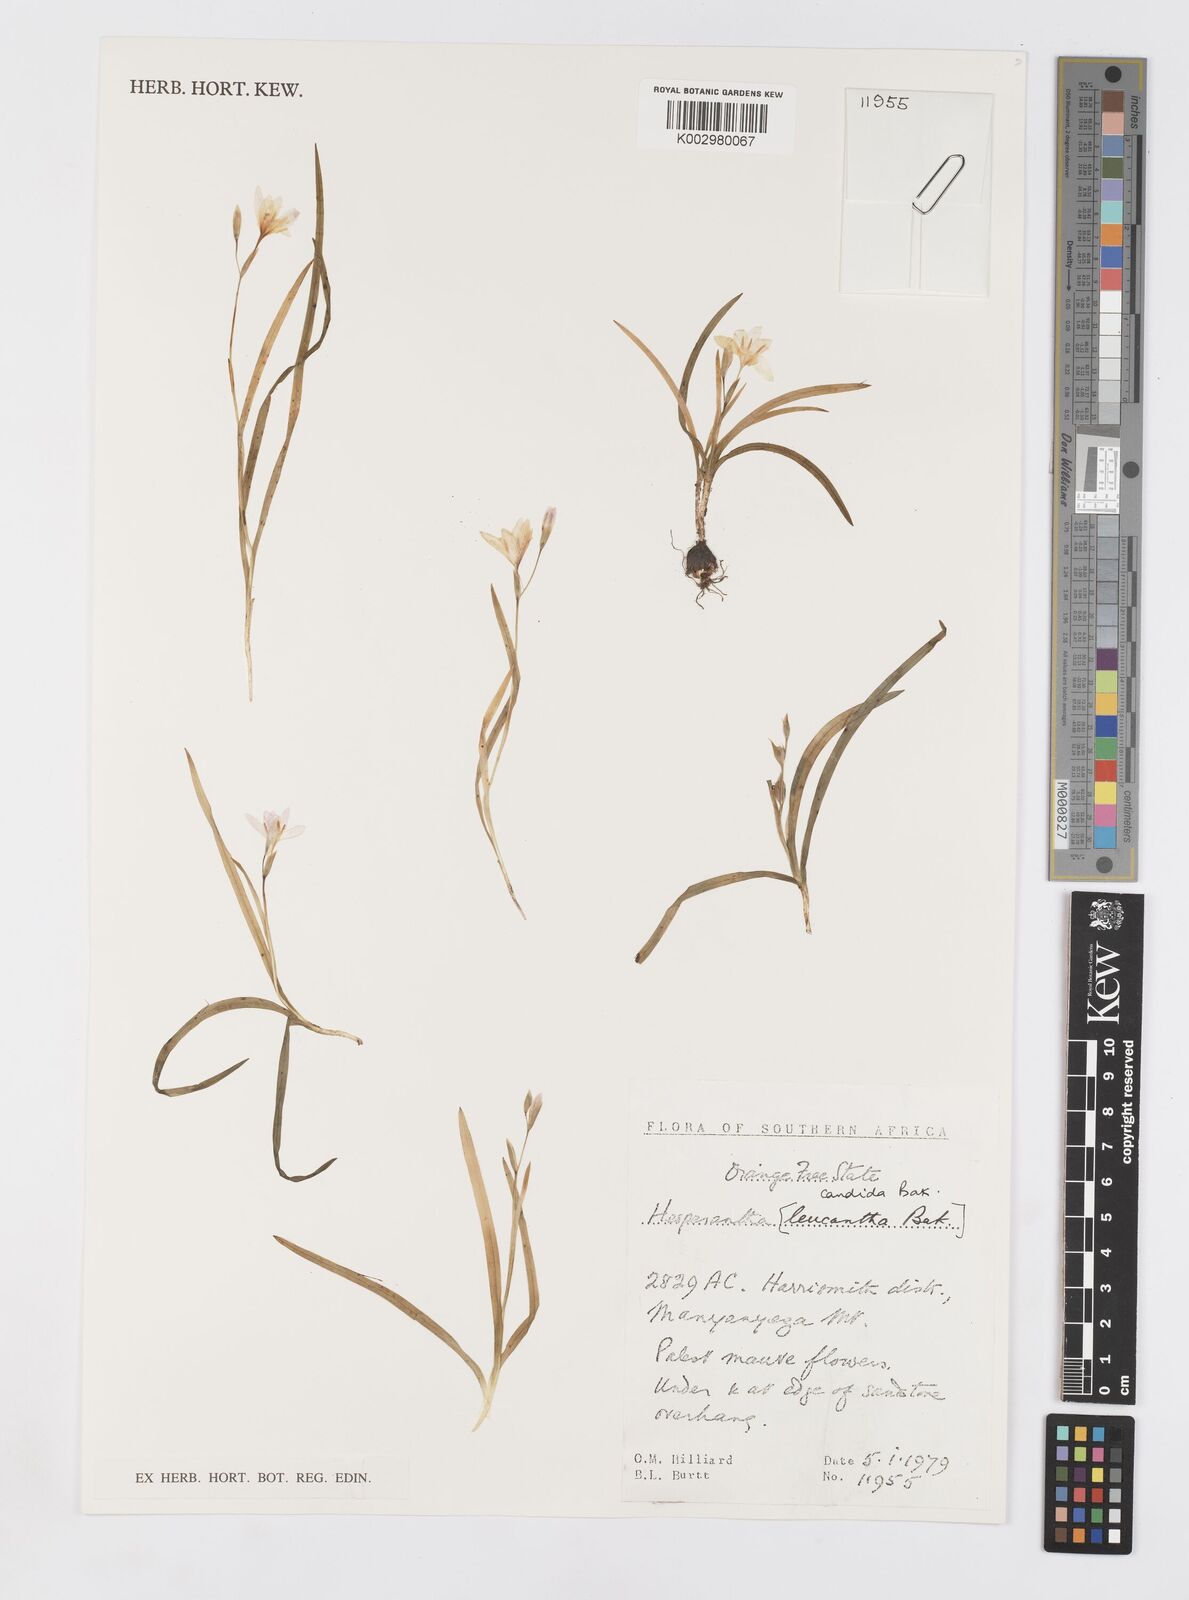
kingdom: Plantae
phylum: Tracheophyta
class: Liliopsida
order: Asparagales
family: Iridaceae
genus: Hesperantha
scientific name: Hesperantha candida
